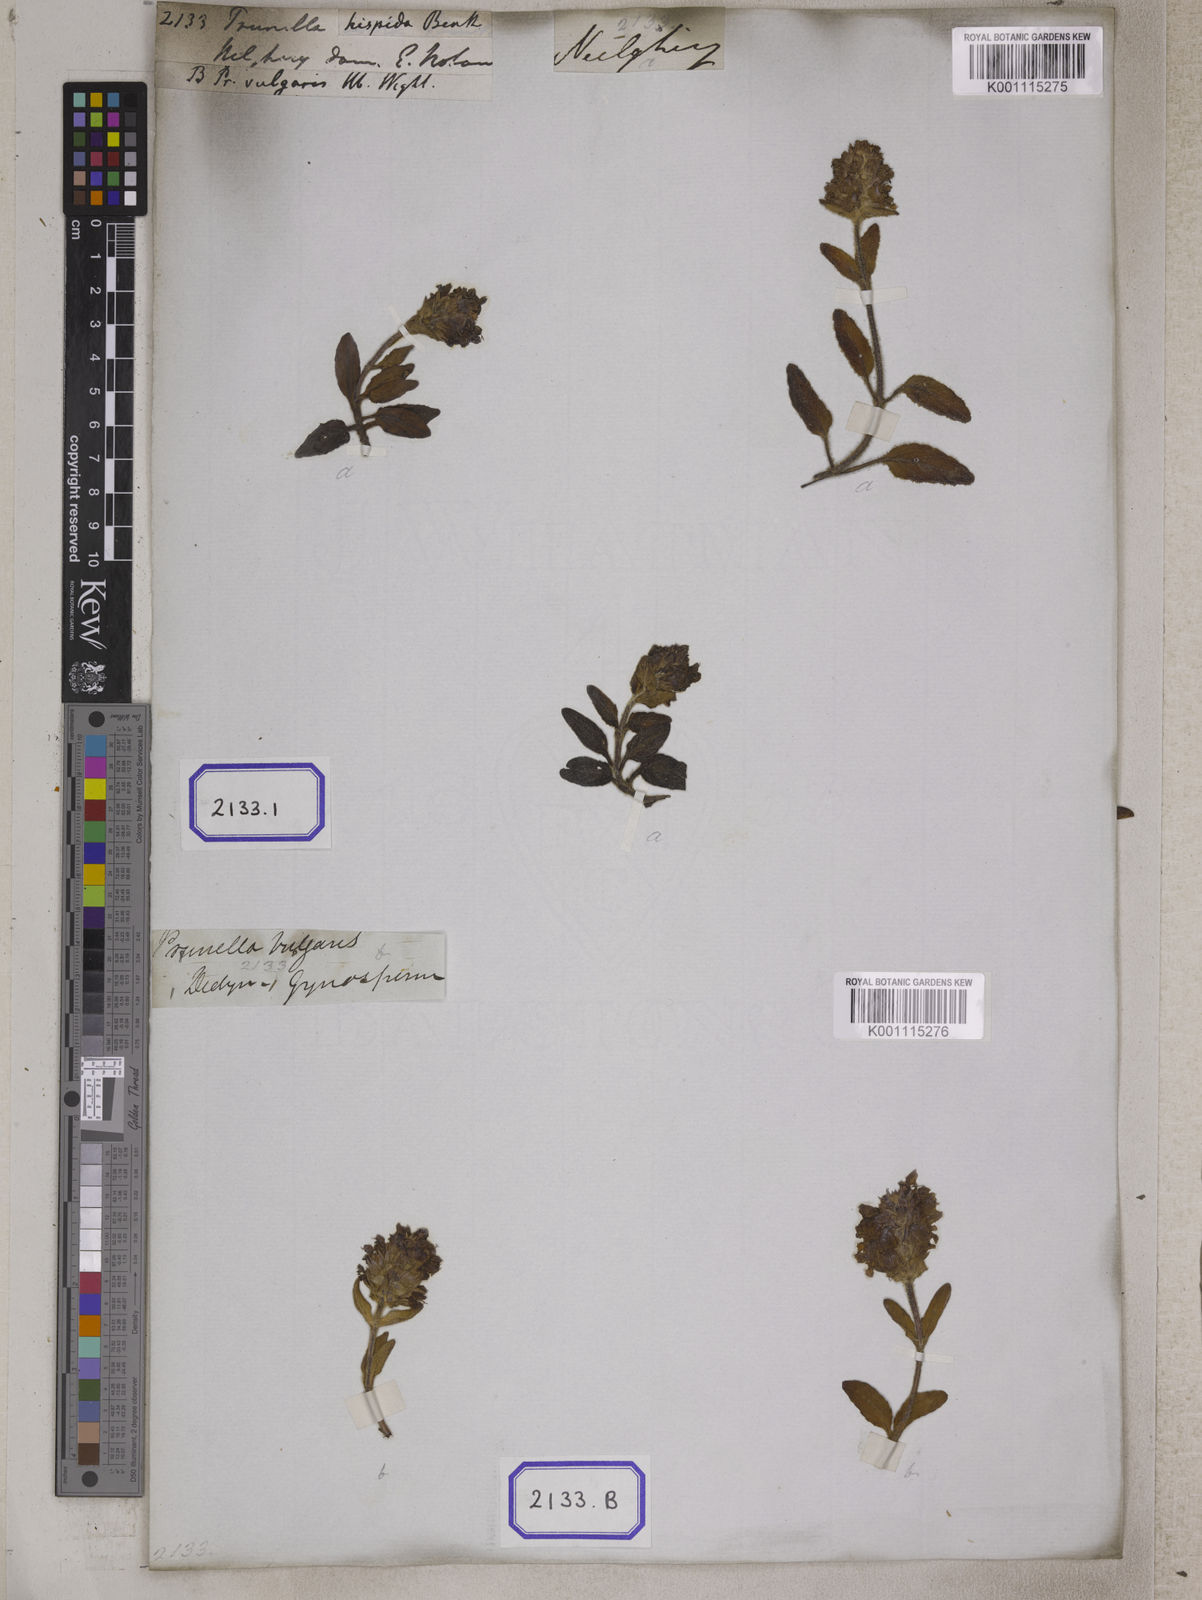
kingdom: Plantae
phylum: Tracheophyta
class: Magnoliopsida
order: Lamiales
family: Lamiaceae
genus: Prunella
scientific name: Prunella vulgaris
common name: Heal-all
